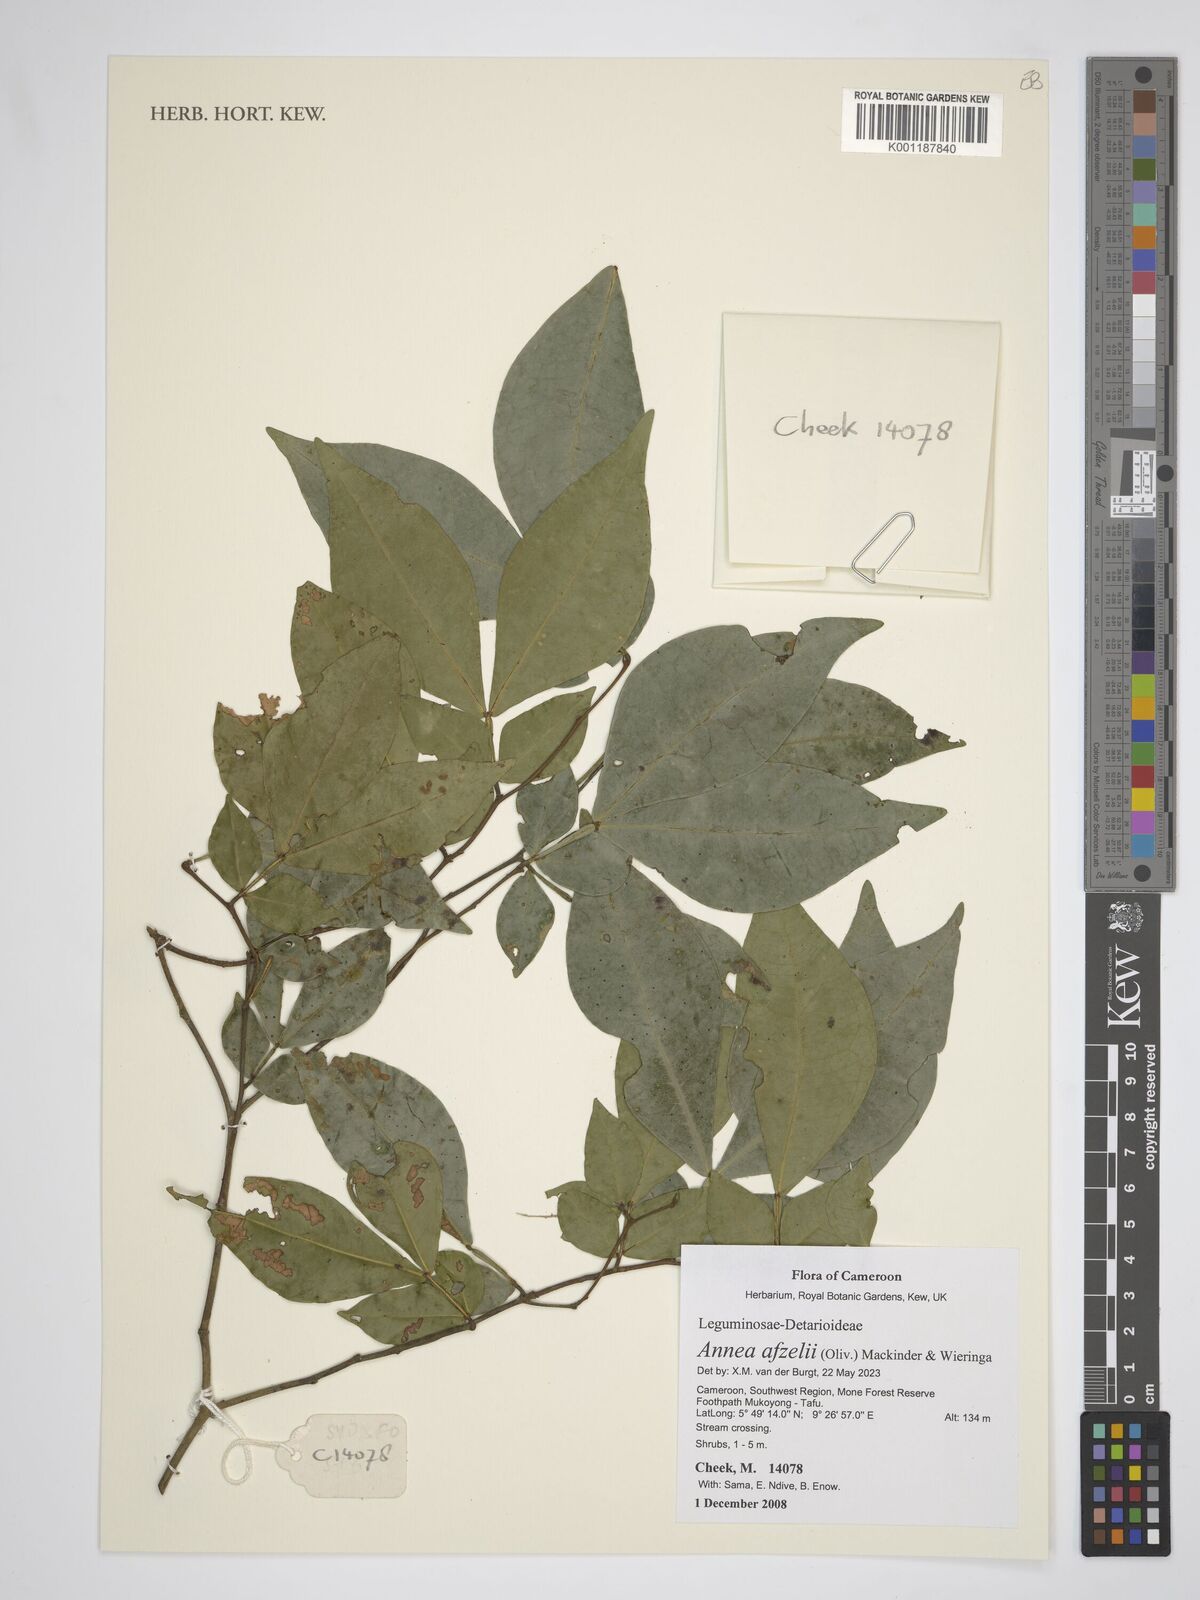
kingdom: Plantae
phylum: Tracheophyta
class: Magnoliopsida
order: Fabales
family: Fabaceae
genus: Annea
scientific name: Annea afzelii
